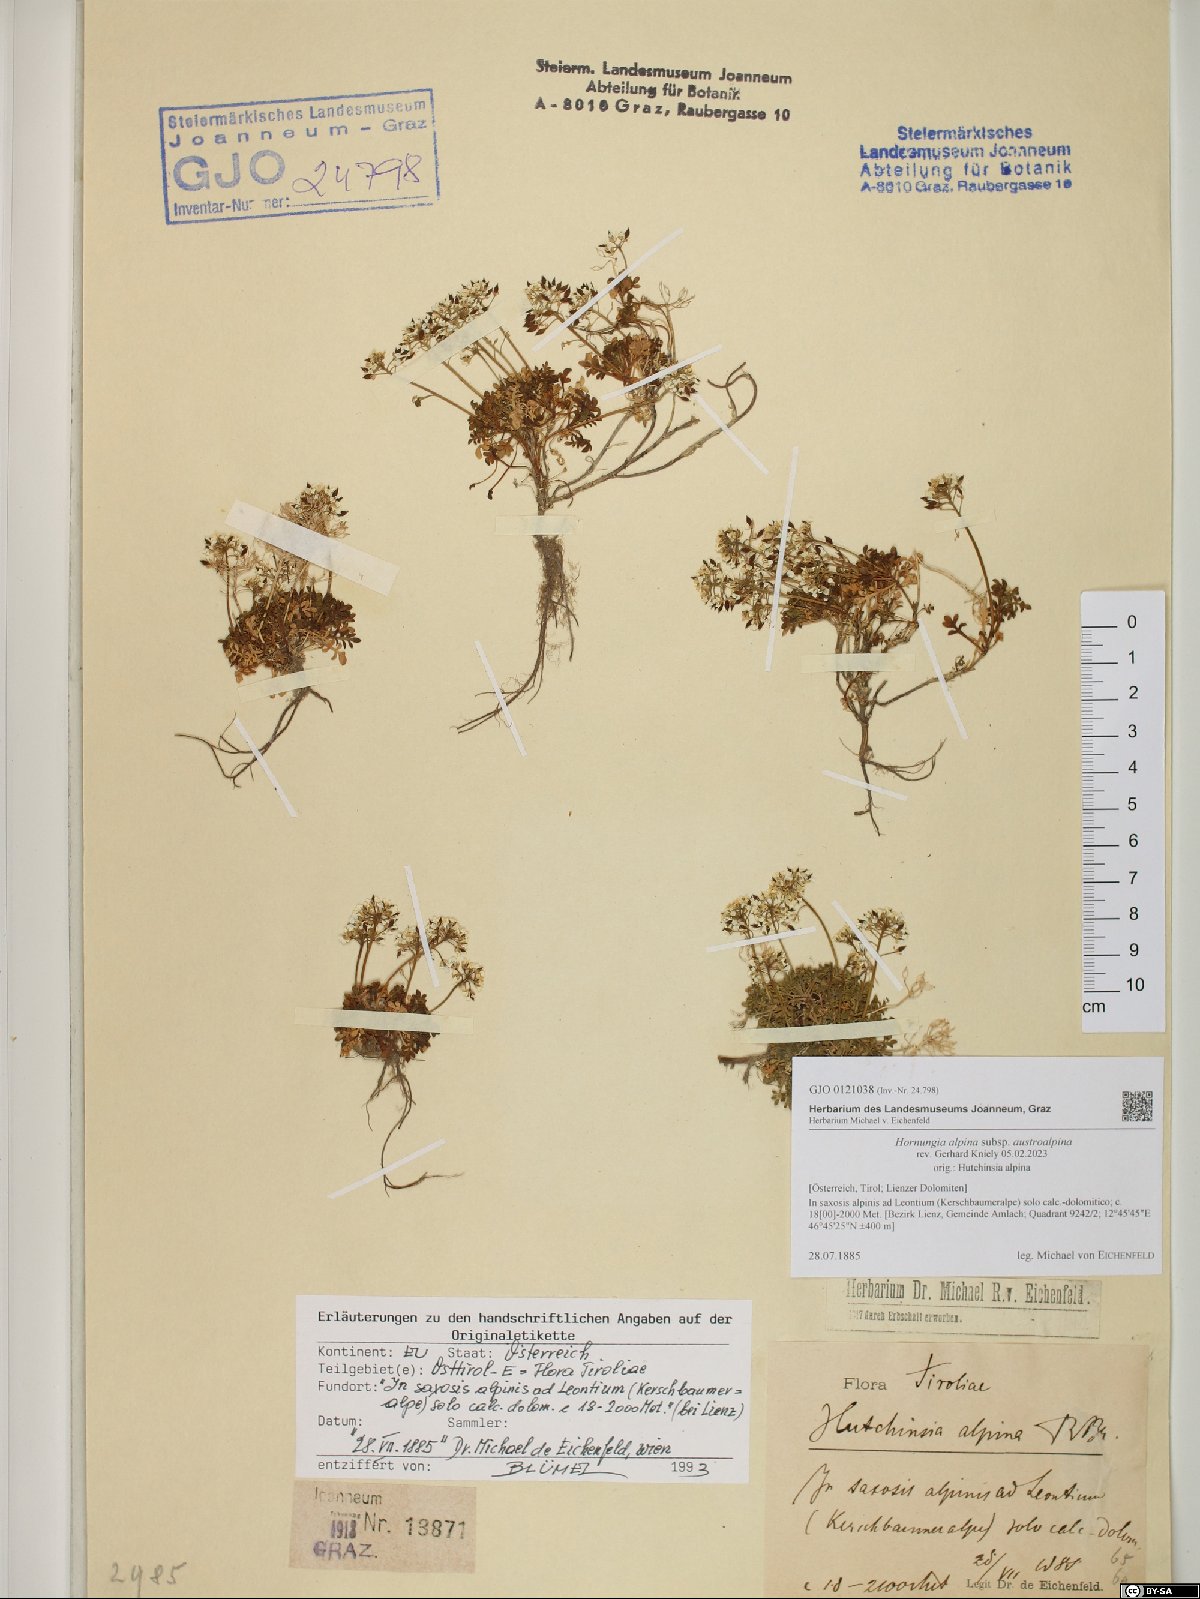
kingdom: Plantae
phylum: Tracheophyta
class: Magnoliopsida
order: Brassicales
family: Brassicaceae
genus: Hornungia
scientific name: Hornungia alpina
